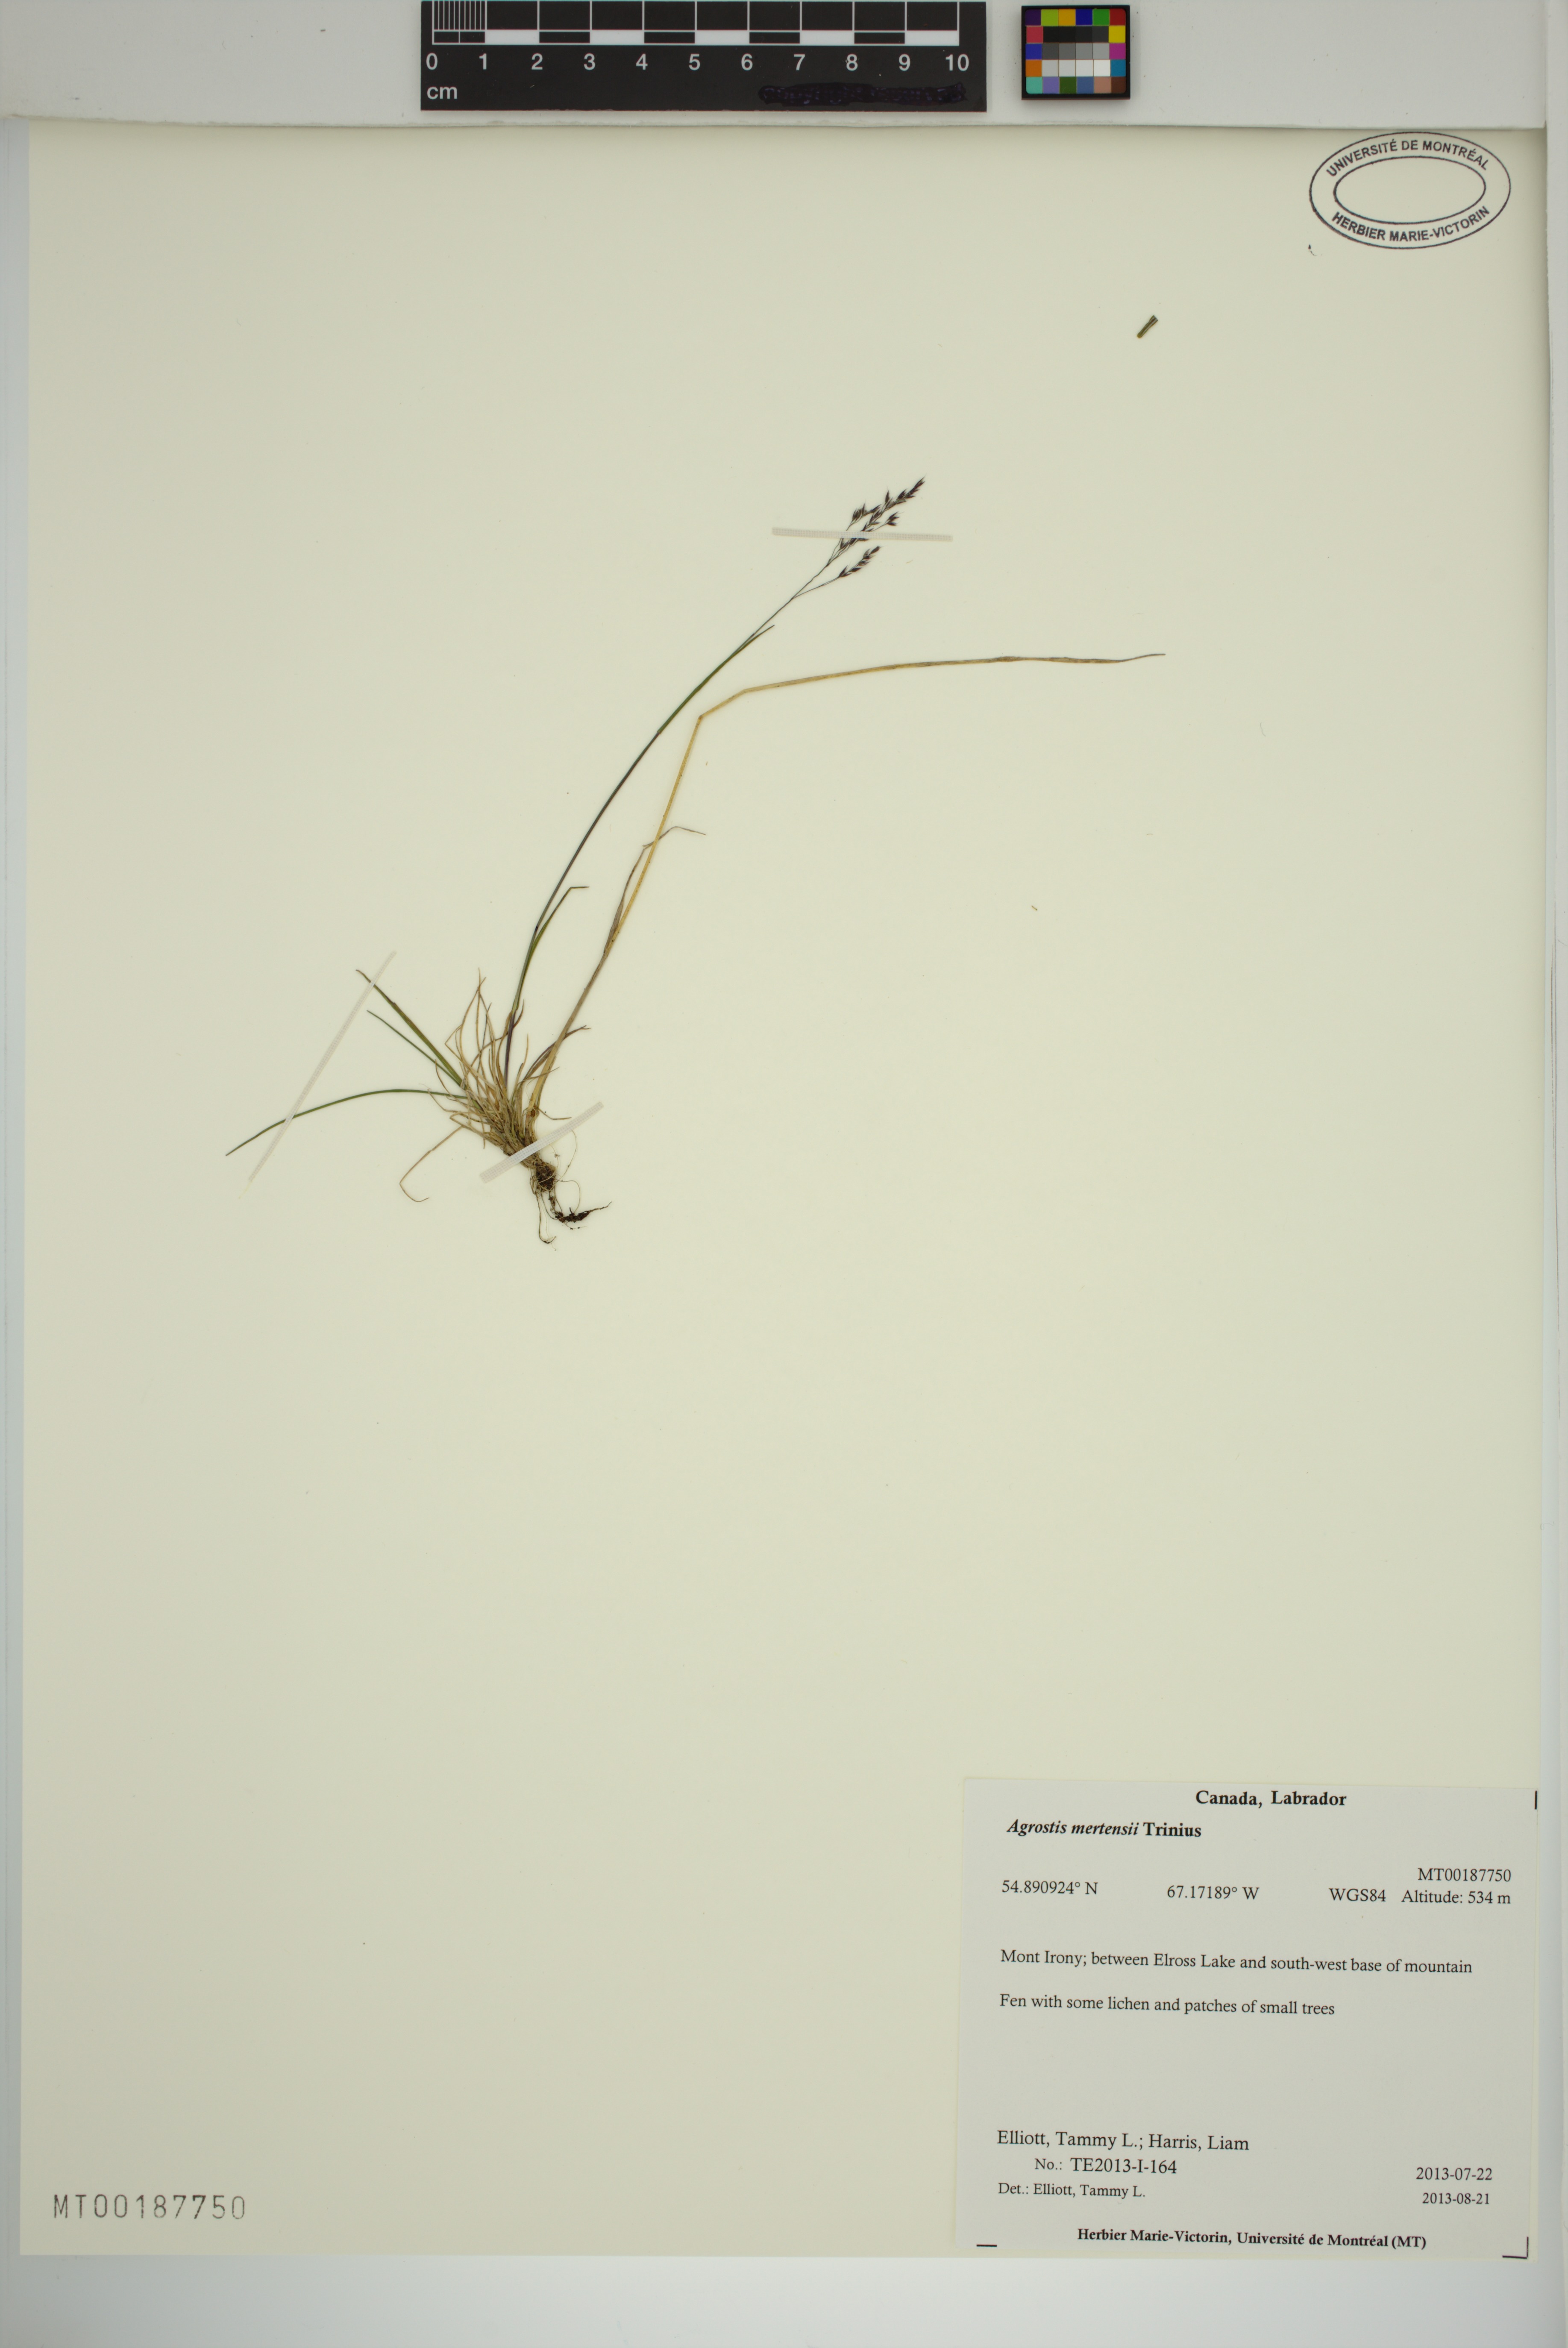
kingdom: Plantae
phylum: Tracheophyta
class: Liliopsida
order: Poales
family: Poaceae
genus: Agrostis
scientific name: Agrostis mertensii
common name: Northern bent
